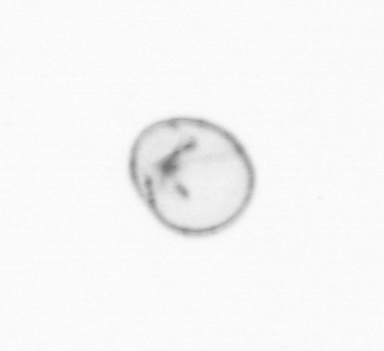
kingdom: Chromista
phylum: Myzozoa
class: Dinophyceae
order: Noctilucales
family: Noctilucaceae
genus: Noctiluca
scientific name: Noctiluca scintillans
